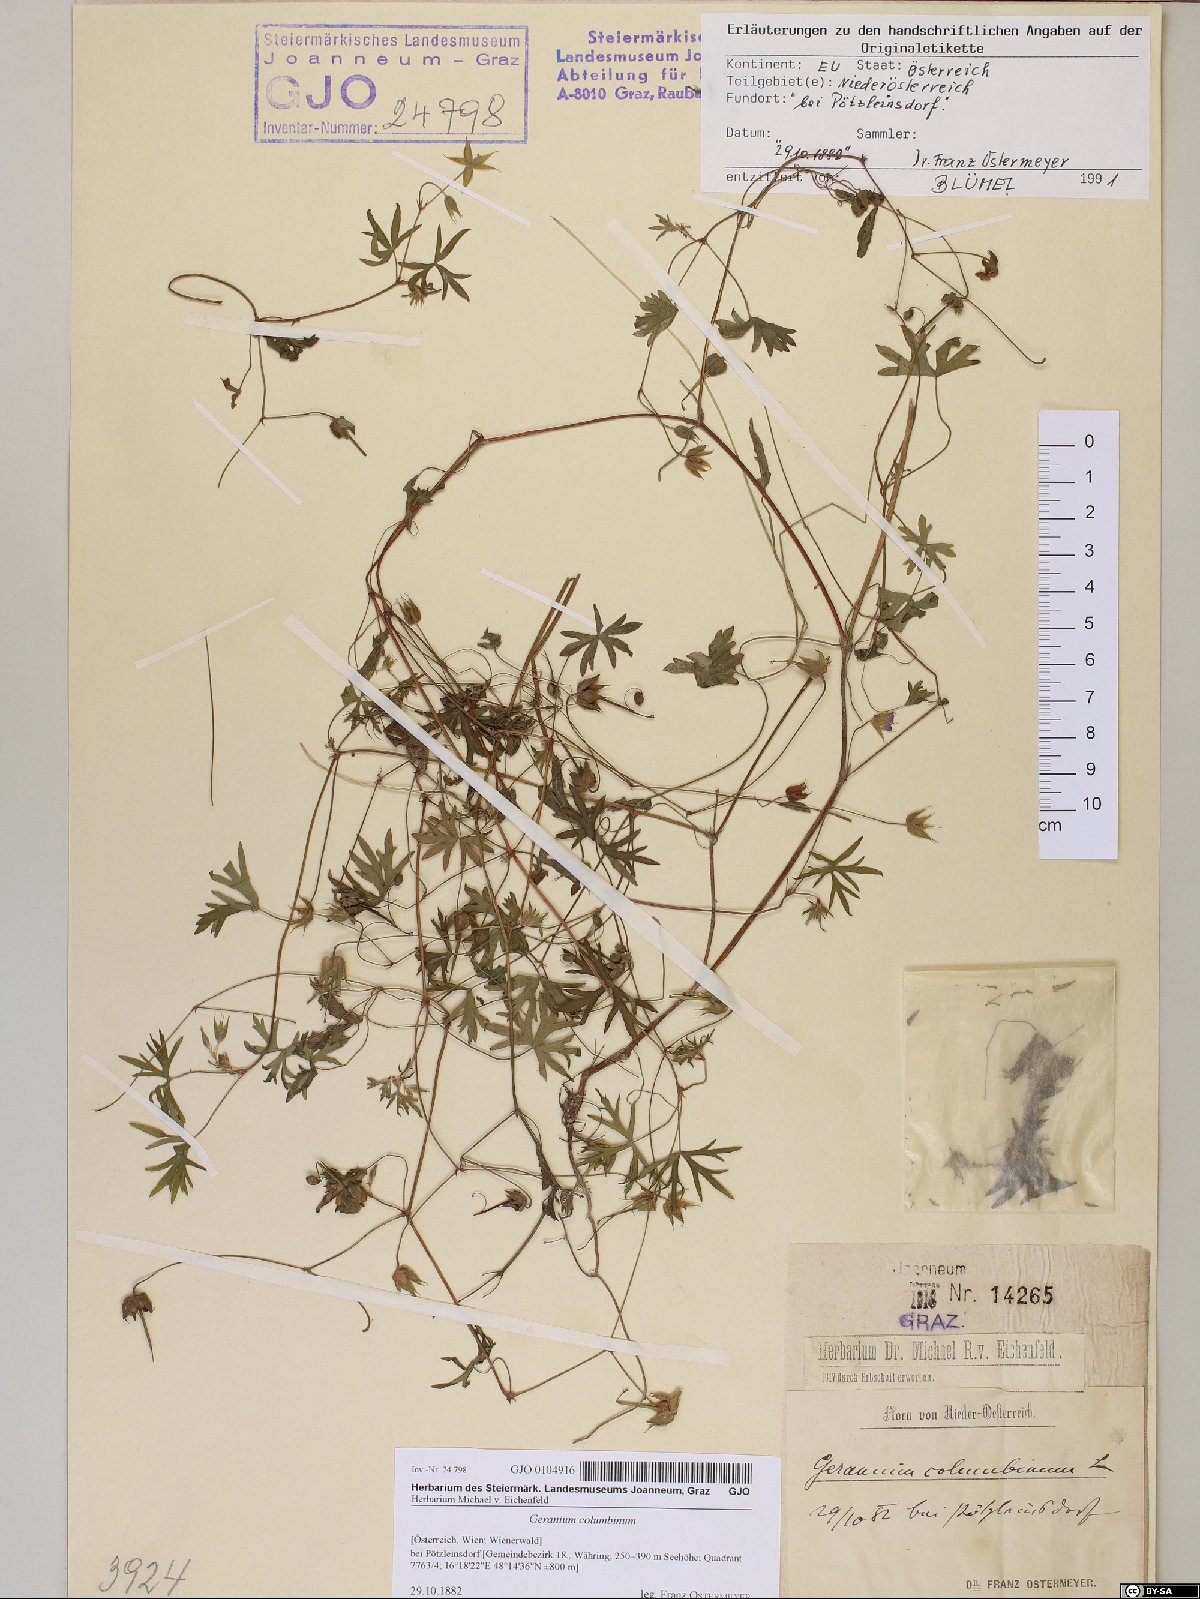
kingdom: Plantae
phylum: Tracheophyta
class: Magnoliopsida
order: Geraniales
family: Geraniaceae
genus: Geranium
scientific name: Geranium columbinum
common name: Long-stalked crane's-bill
